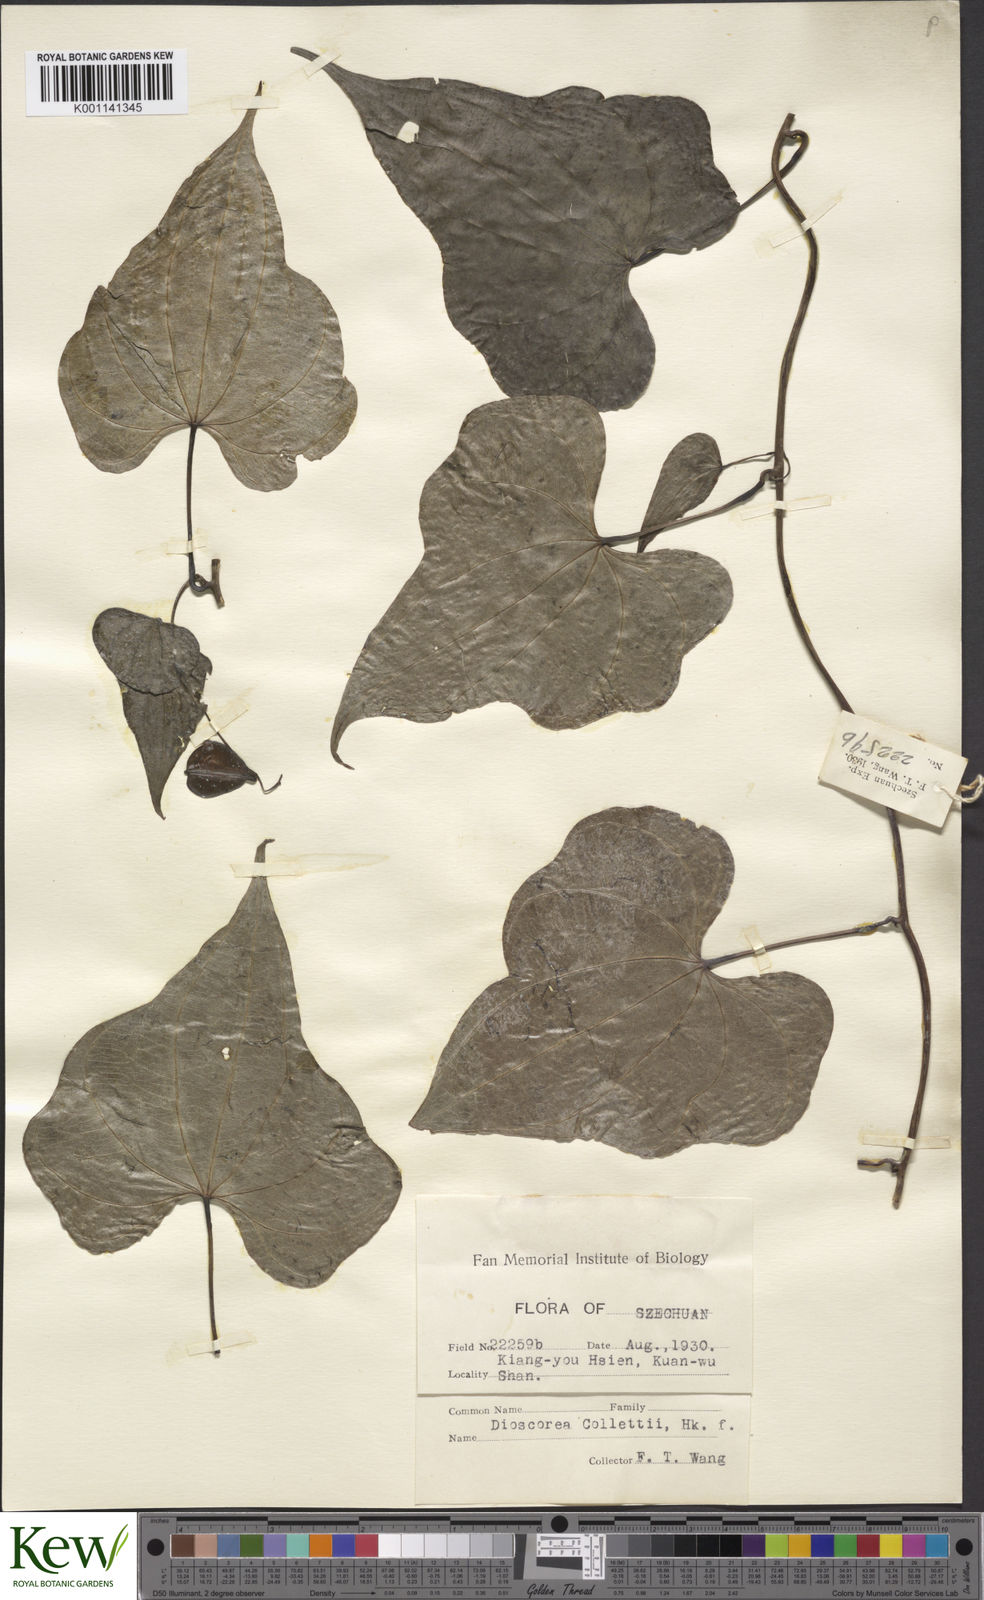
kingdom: Plantae
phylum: Tracheophyta
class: Liliopsida
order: Dioscoreales
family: Dioscoreaceae
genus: Dioscorea
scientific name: Dioscorea collettii
